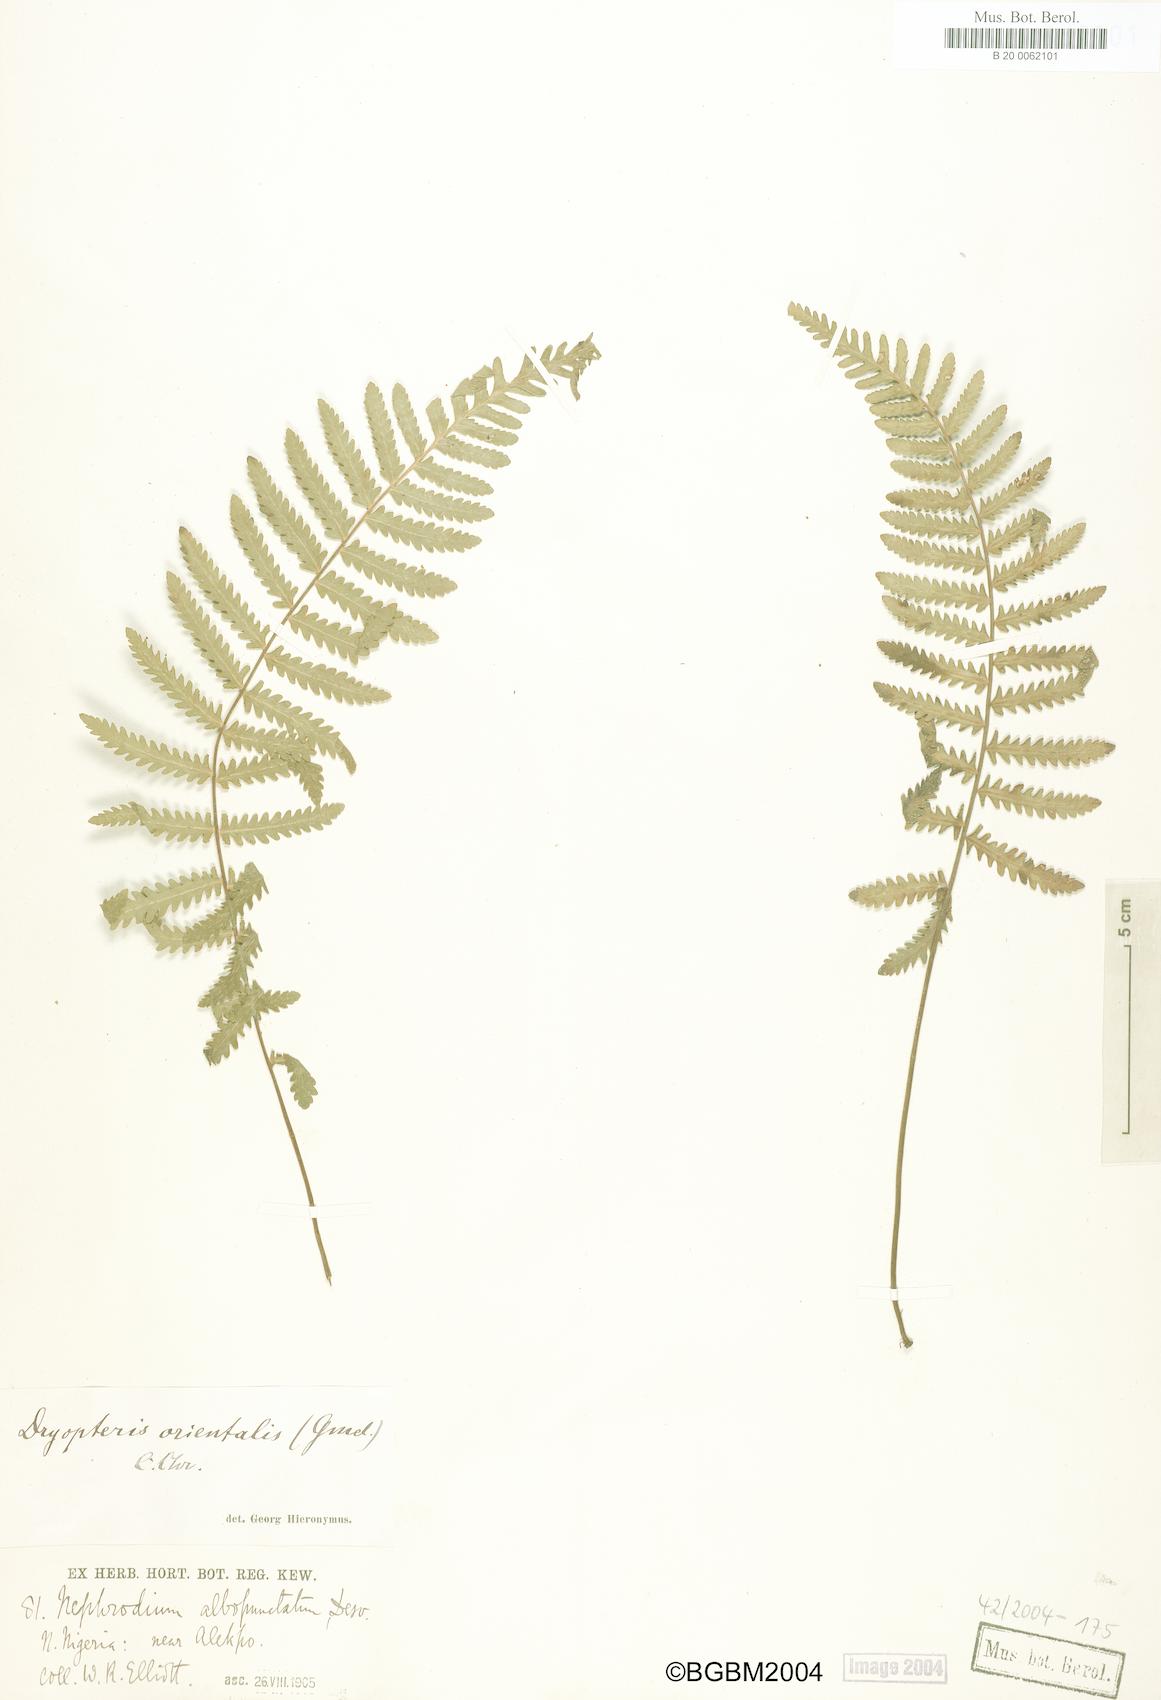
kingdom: Plantae
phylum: Tracheophyta
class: Polypodiopsida
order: Polypodiales
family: Tectariaceae
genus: Arthropteris
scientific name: Arthropteris orientalis
